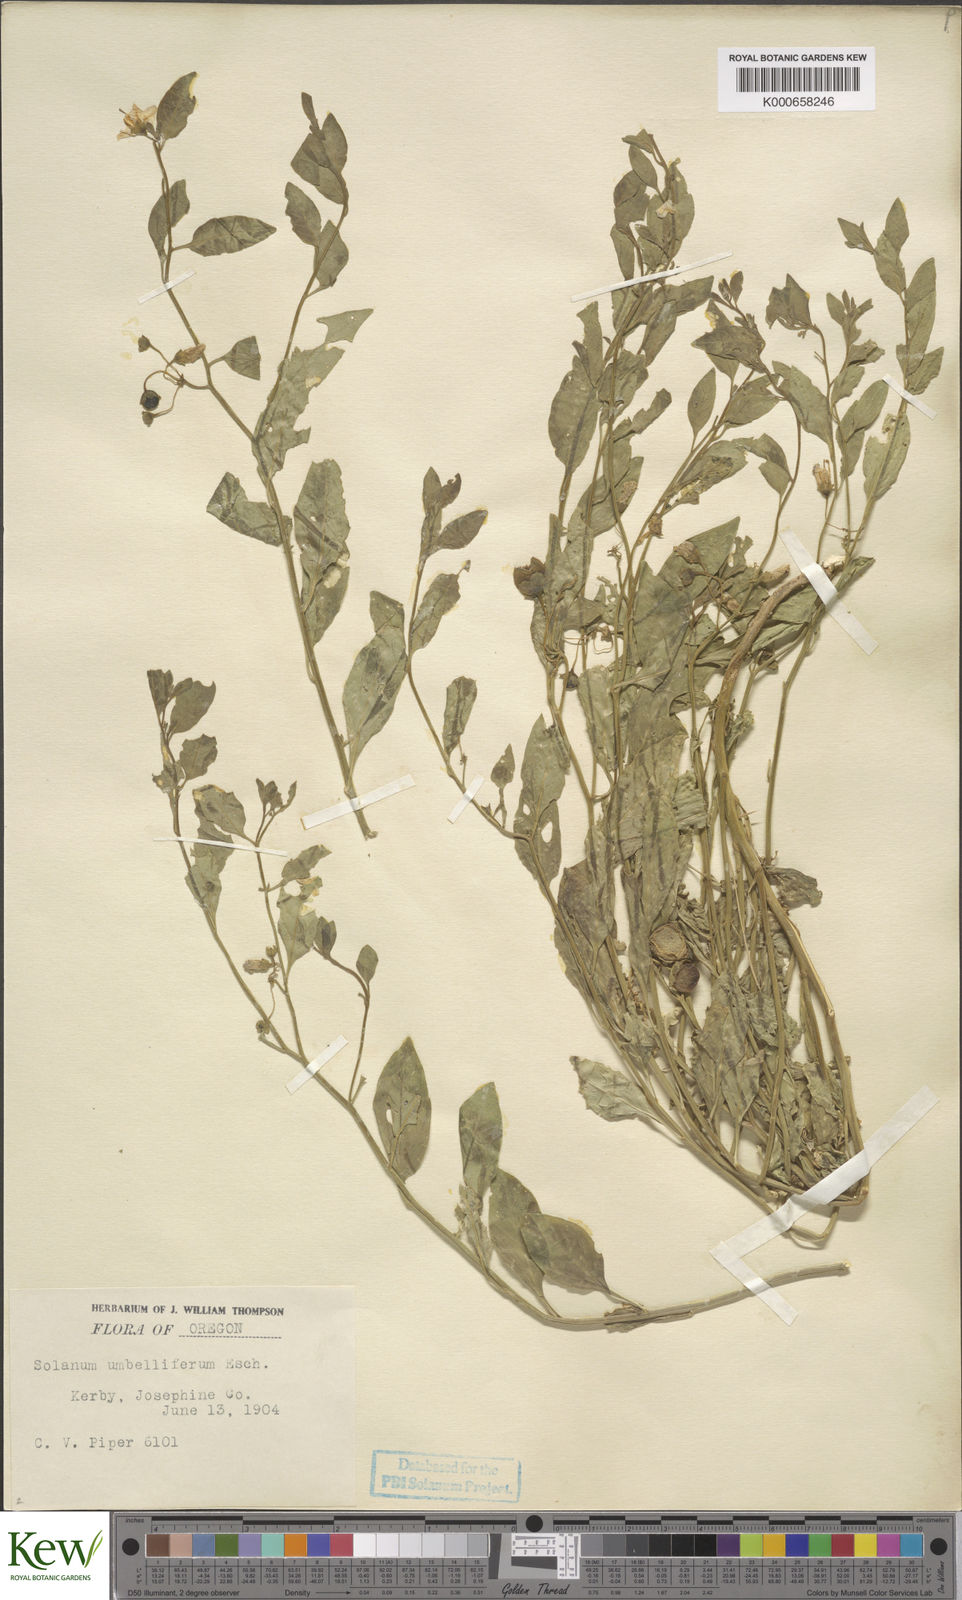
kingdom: Plantae
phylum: Tracheophyta
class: Magnoliopsida
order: Solanales
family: Solanaceae
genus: Solanum
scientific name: Solanum umbelliferum
